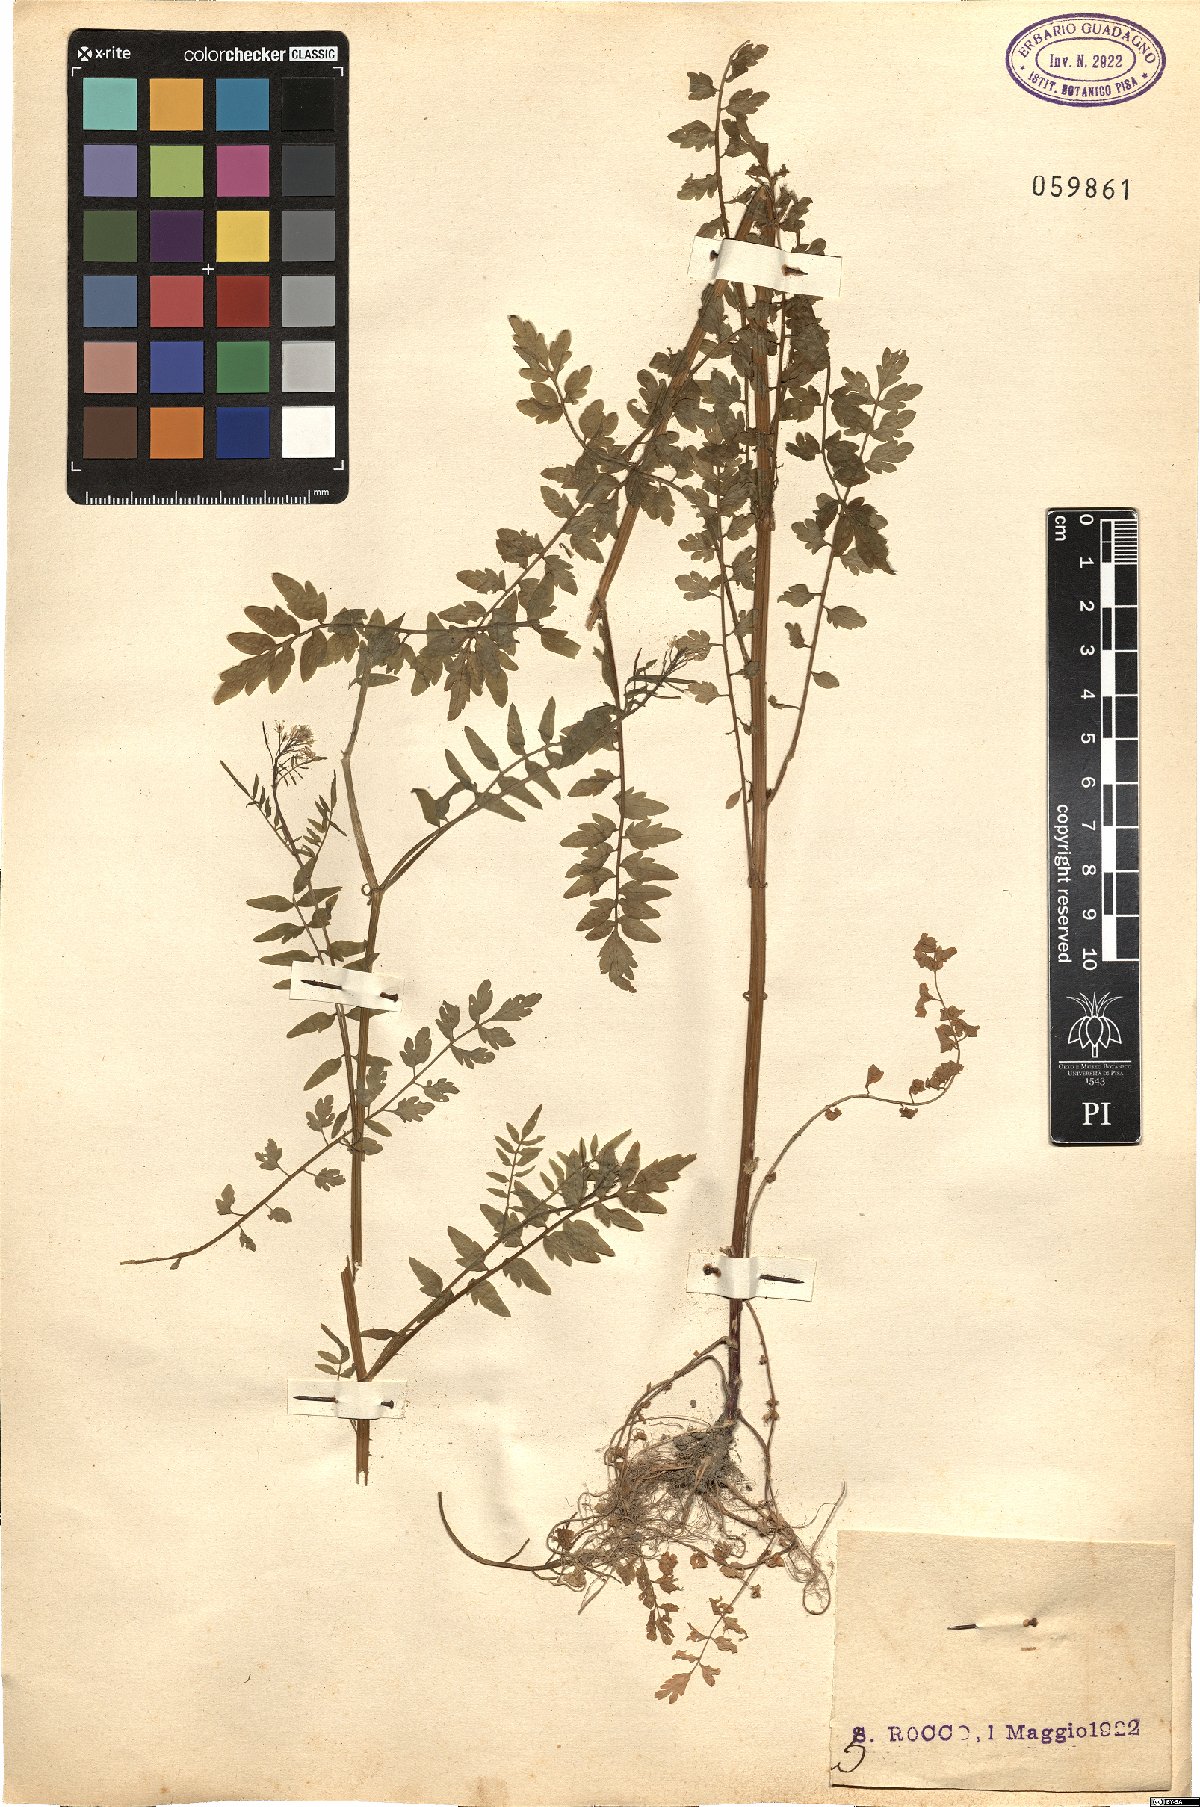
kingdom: Plantae
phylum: Tracheophyta
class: Magnoliopsida
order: Brassicales
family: Brassicaceae
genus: Cardamine
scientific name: Cardamine impatiens
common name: Narrow-leaved bitter-cress
